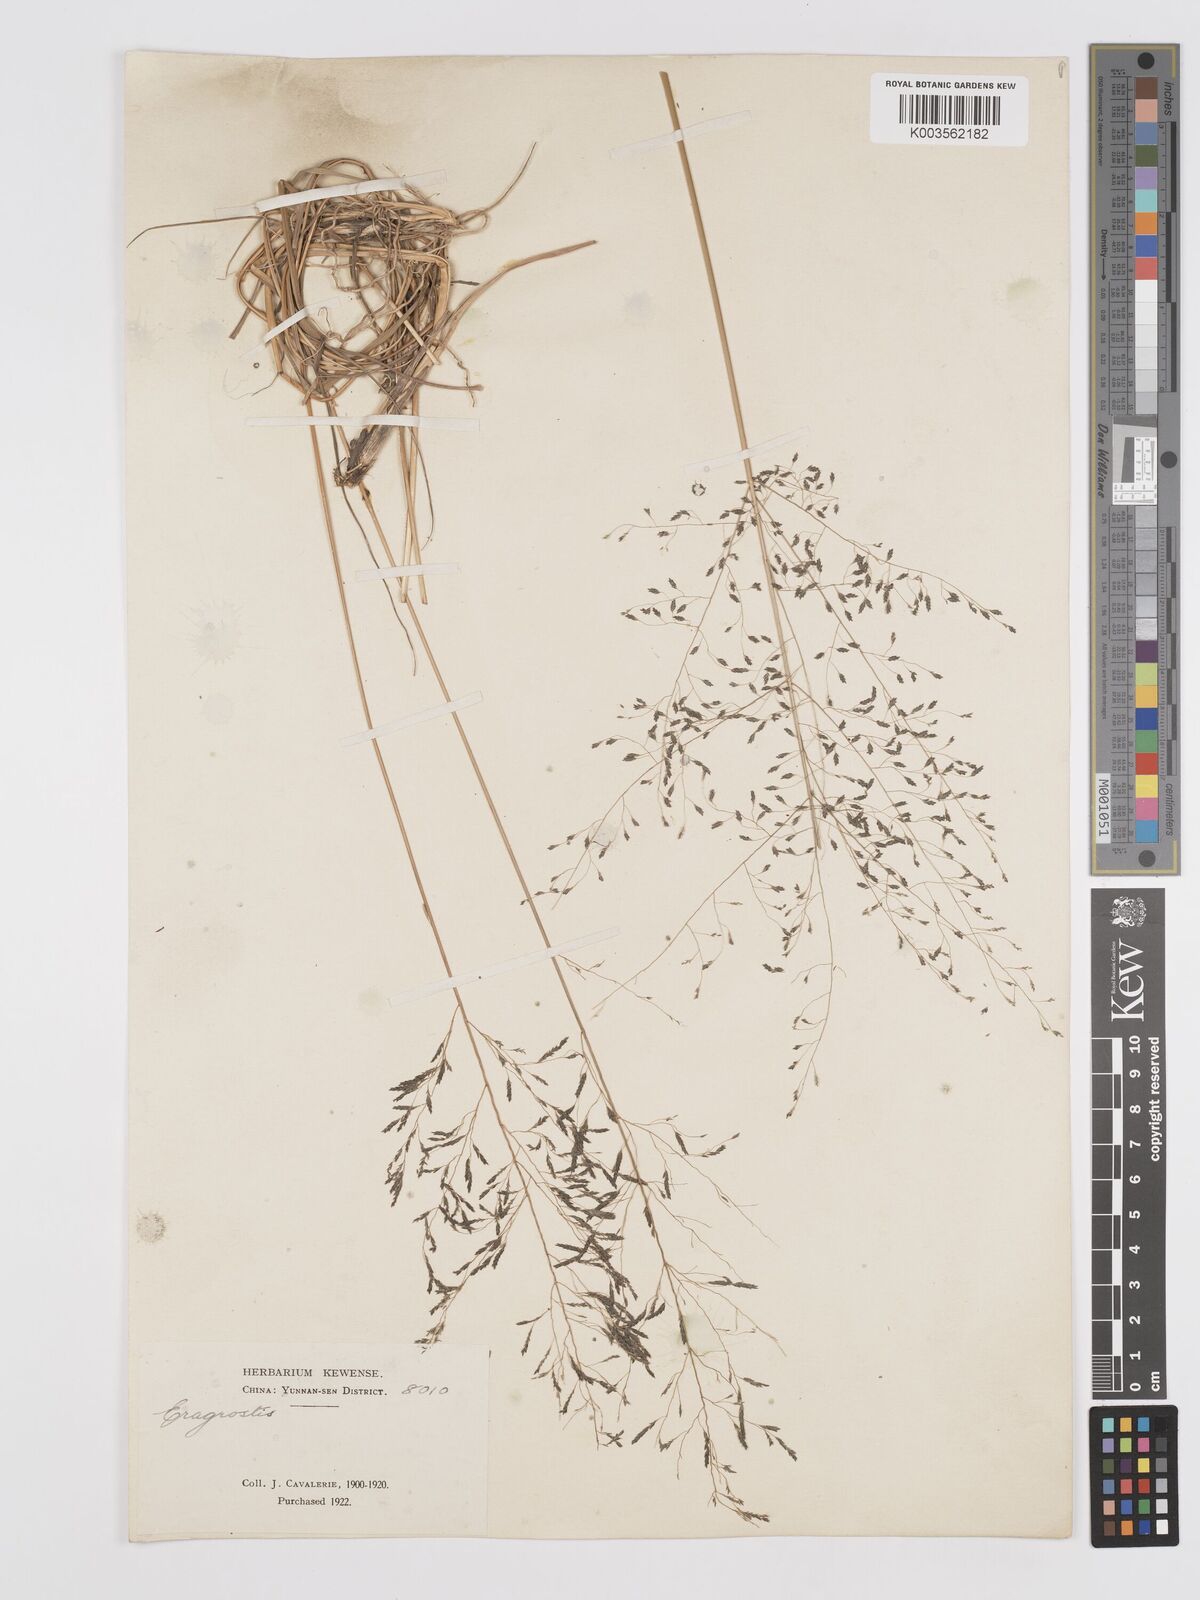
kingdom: Plantae
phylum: Tracheophyta
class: Liliopsida
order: Poales
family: Poaceae
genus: Eragrostis
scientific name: Eragrostis nigra
